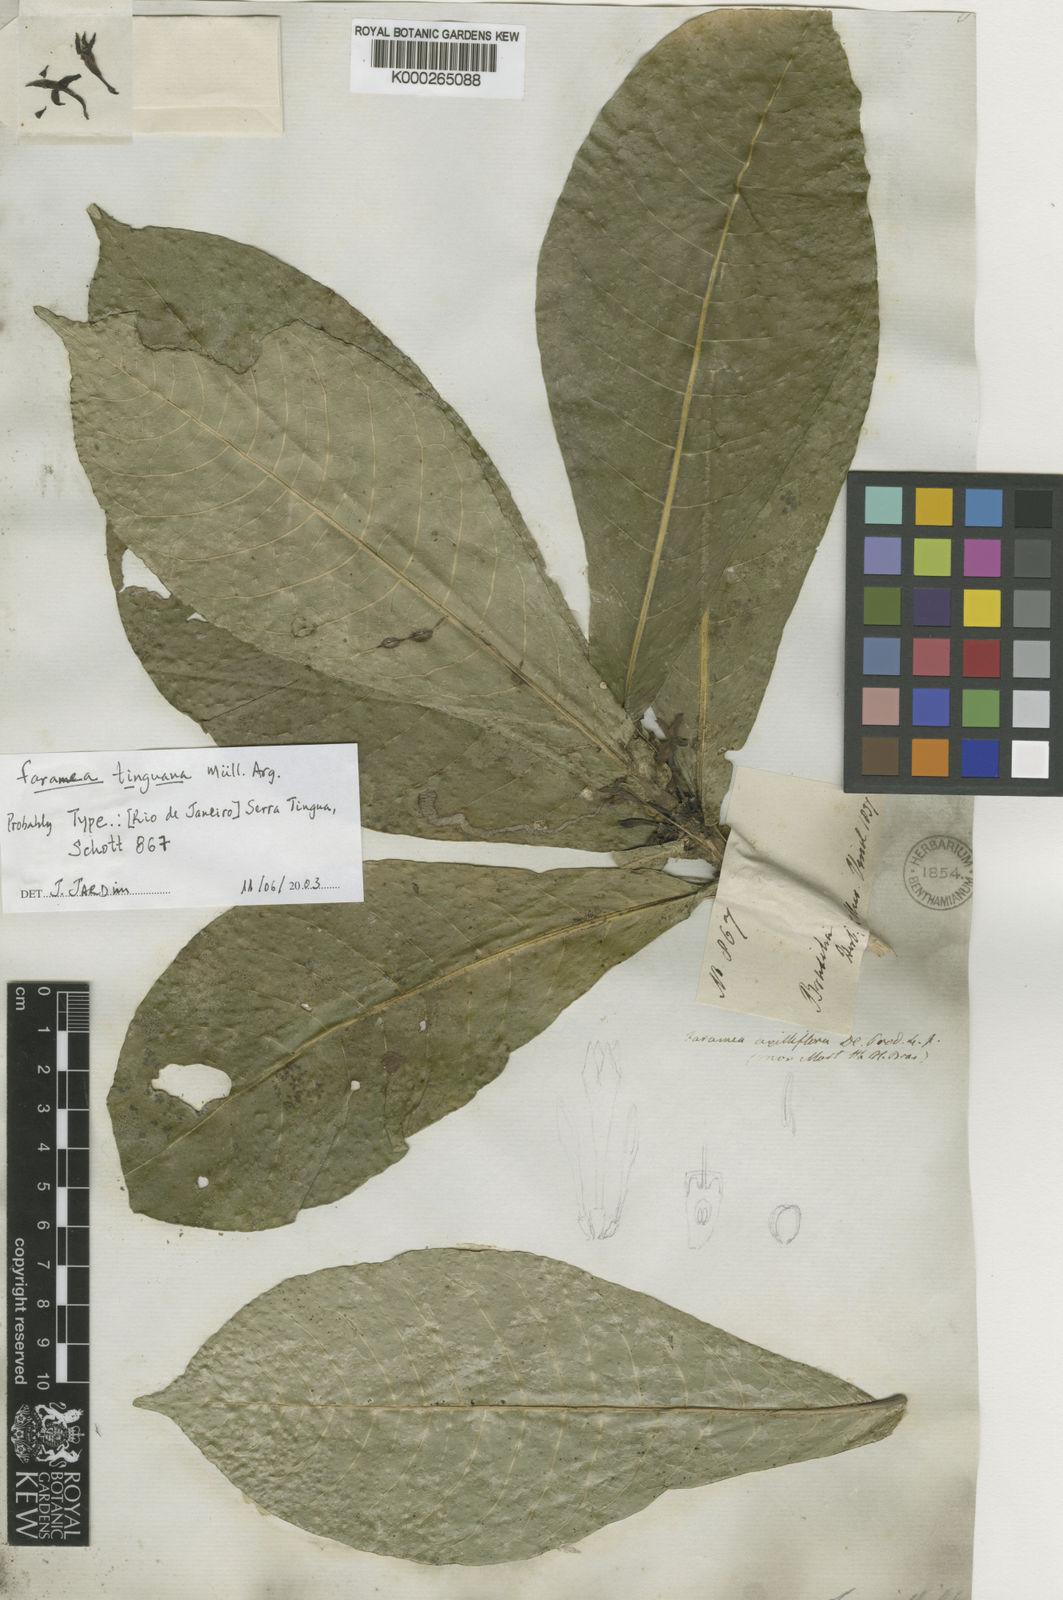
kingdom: Plantae
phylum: Tracheophyta
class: Magnoliopsida
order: Gentianales
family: Rubiaceae
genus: Faramea
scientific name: Faramea
